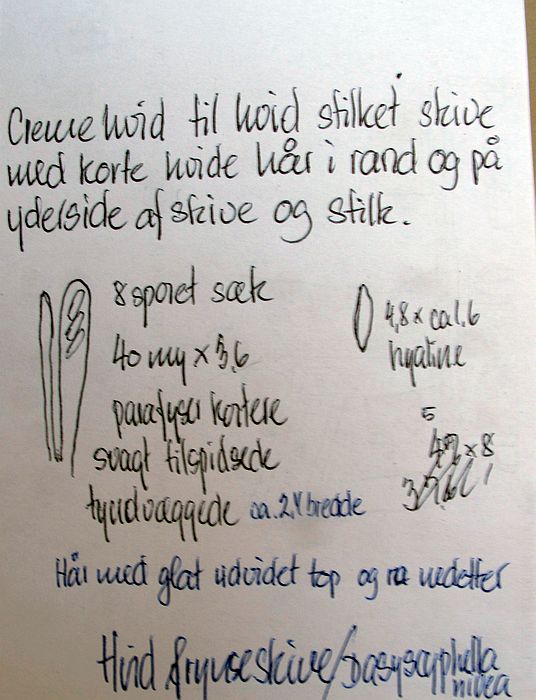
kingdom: Fungi
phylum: Ascomycota
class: Leotiomycetes
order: Helotiales
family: Lachnaceae
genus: Lachnum
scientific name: Lachnum impudicum
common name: vinter-frynseskive
